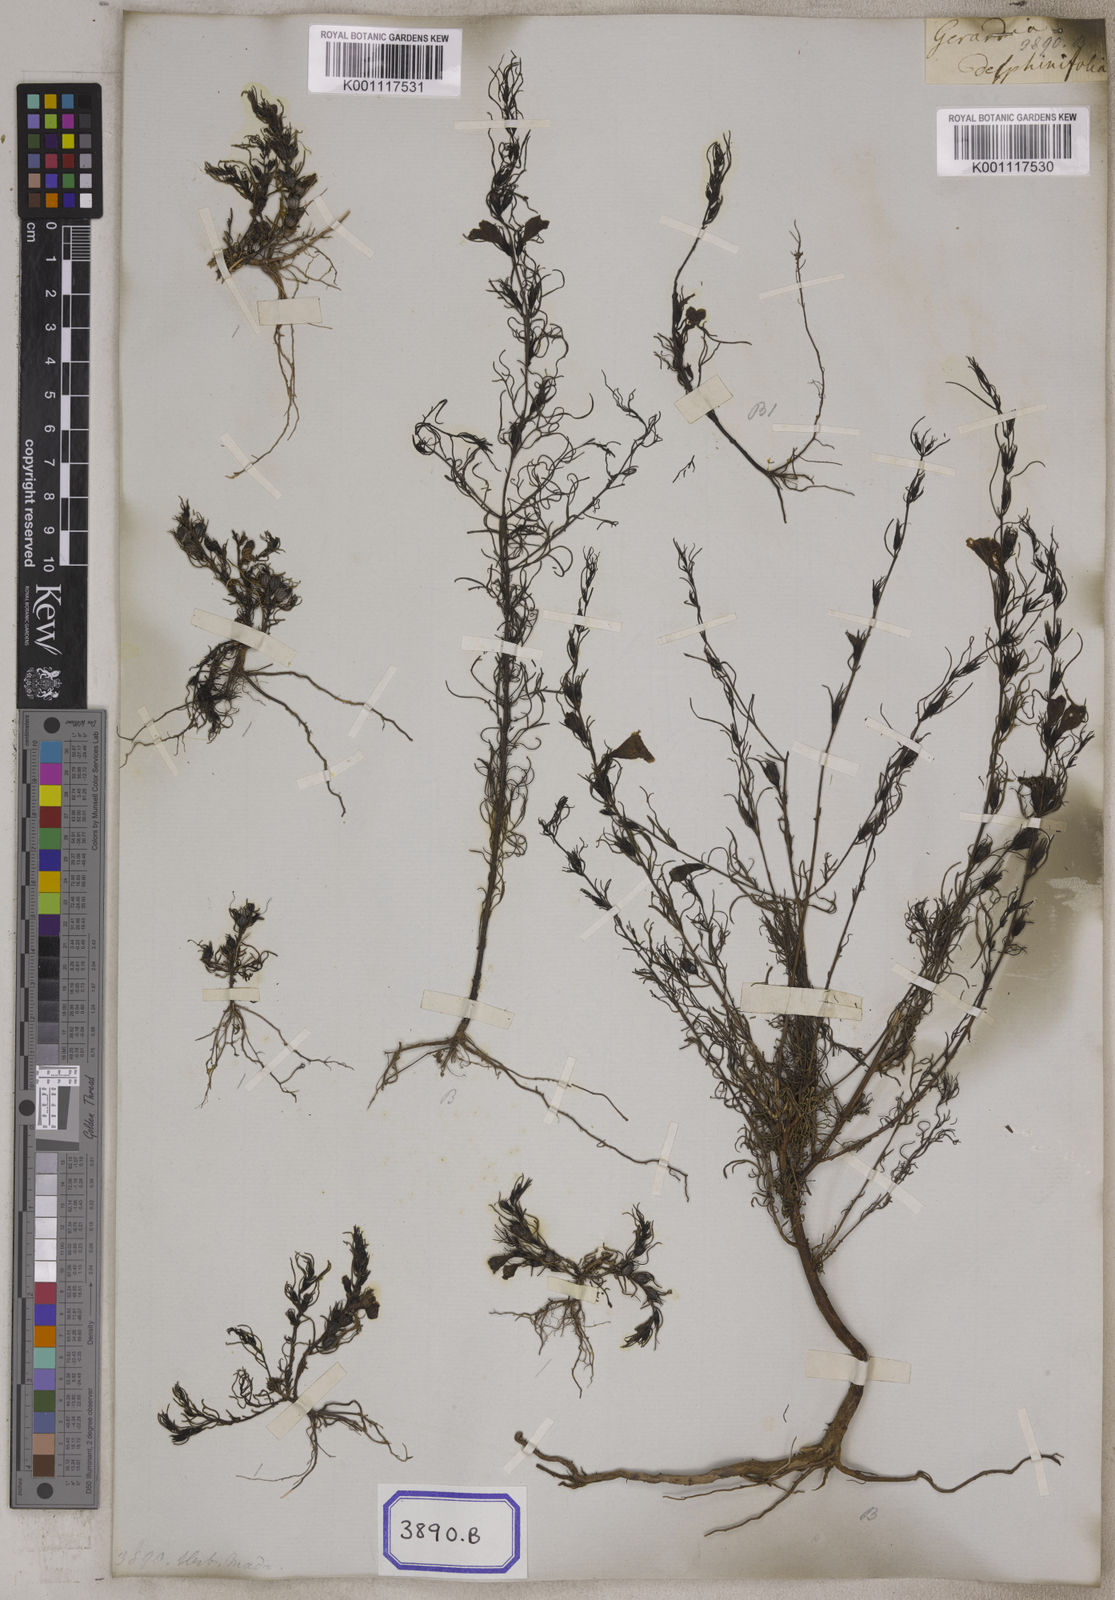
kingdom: Plantae
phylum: Tracheophyta
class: Magnoliopsida
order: Lamiales
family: Orobanchaceae
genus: Parasopubia
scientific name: Parasopubia delphiniifolia
